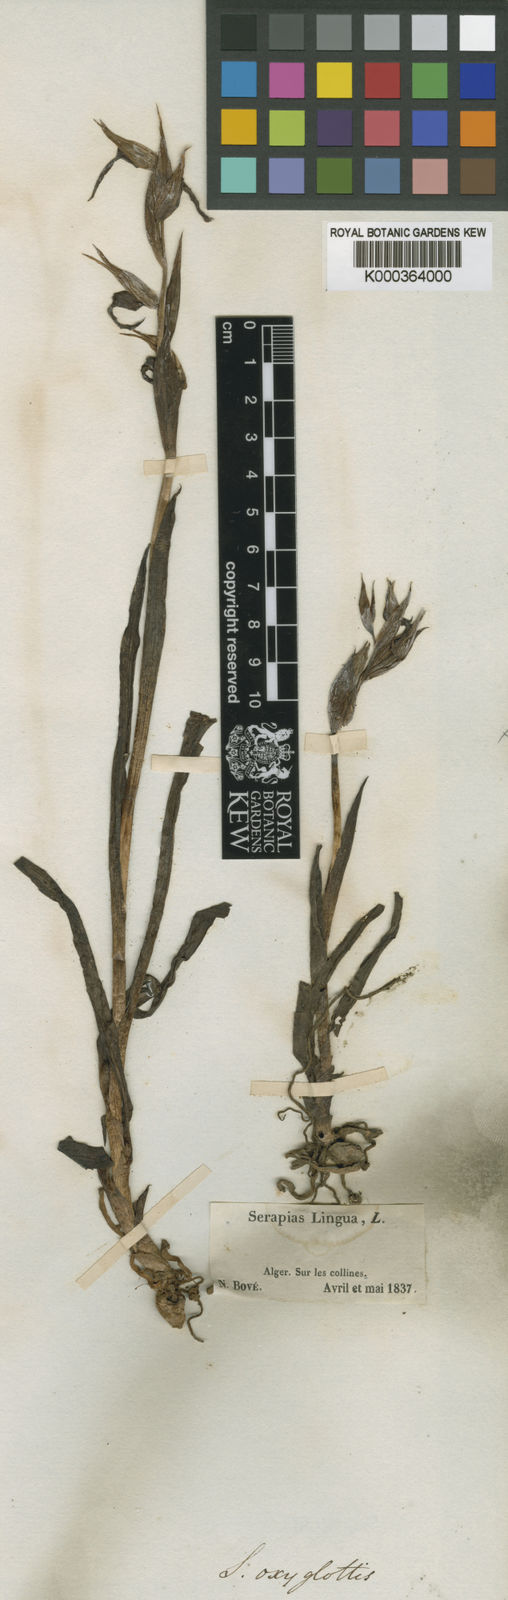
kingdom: Plantae
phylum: Tracheophyta
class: Liliopsida
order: Asparagales
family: Orchidaceae
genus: Serapias
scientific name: Serapias lingua
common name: Tongue-orchid
